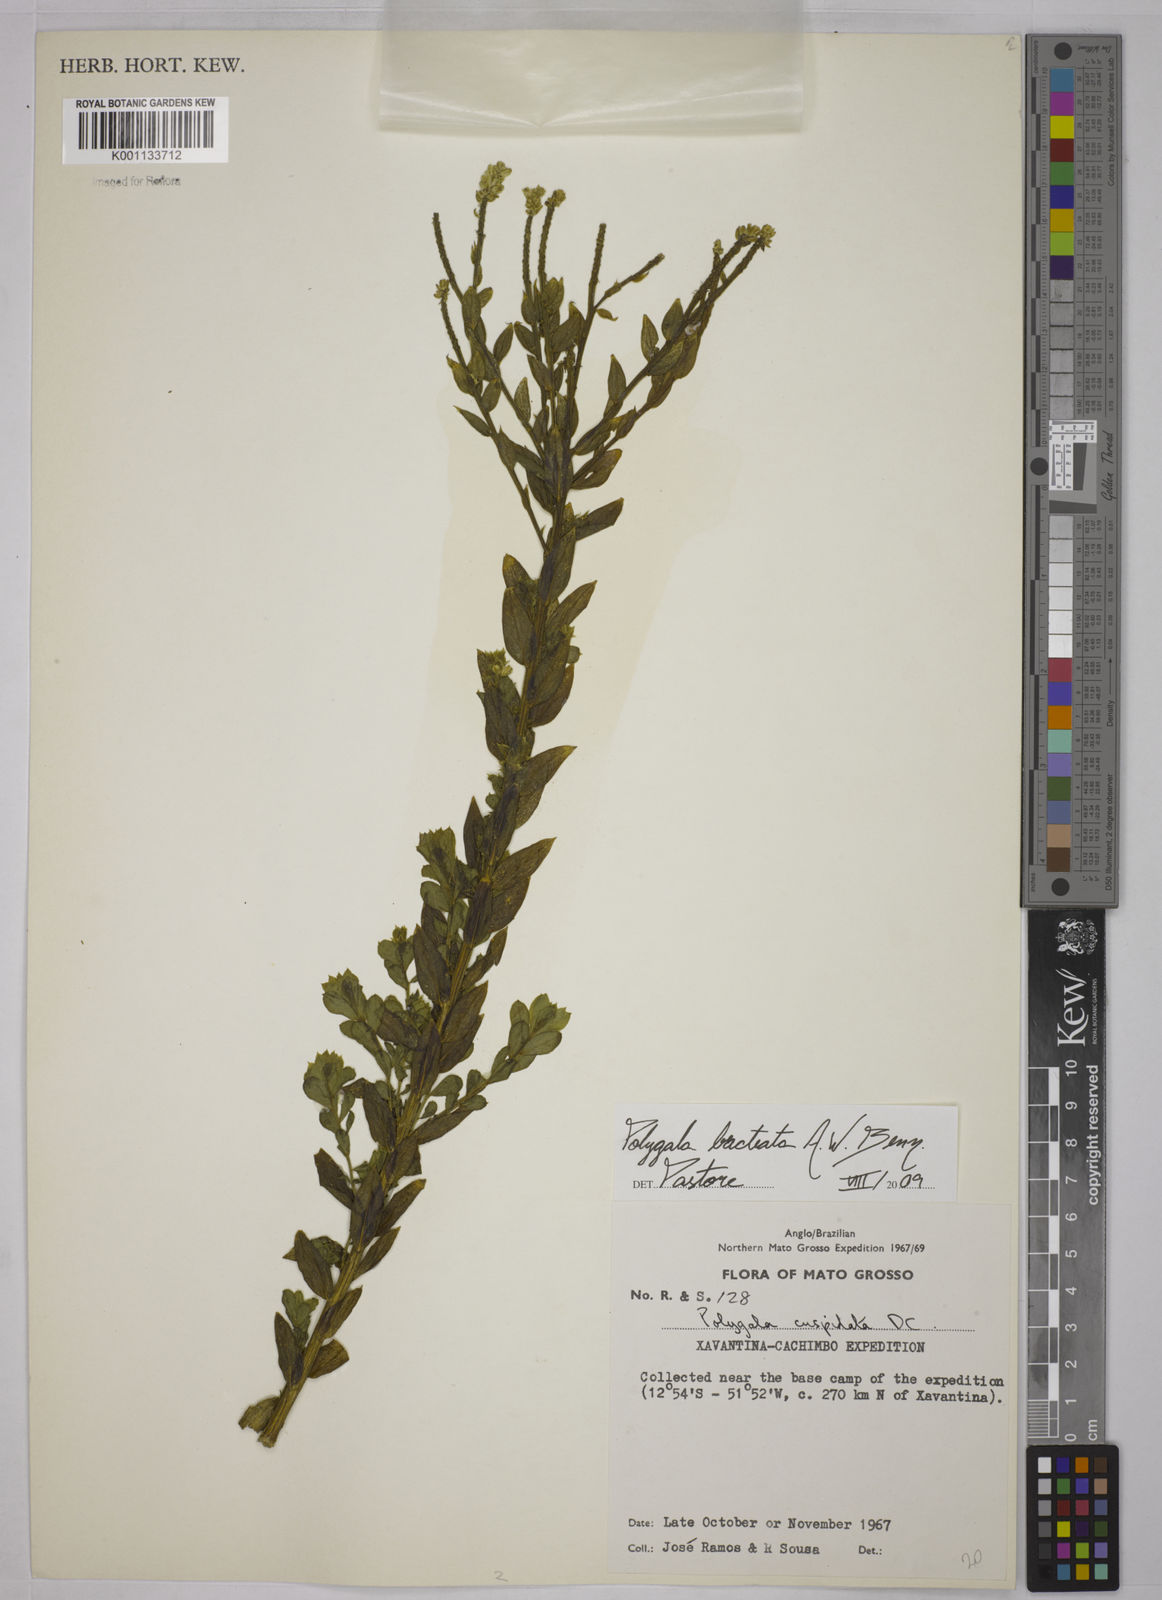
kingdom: Plantae
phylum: Tracheophyta
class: Magnoliopsida
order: Fabales
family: Polygalaceae
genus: Polygala
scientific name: Polygala irwinii
